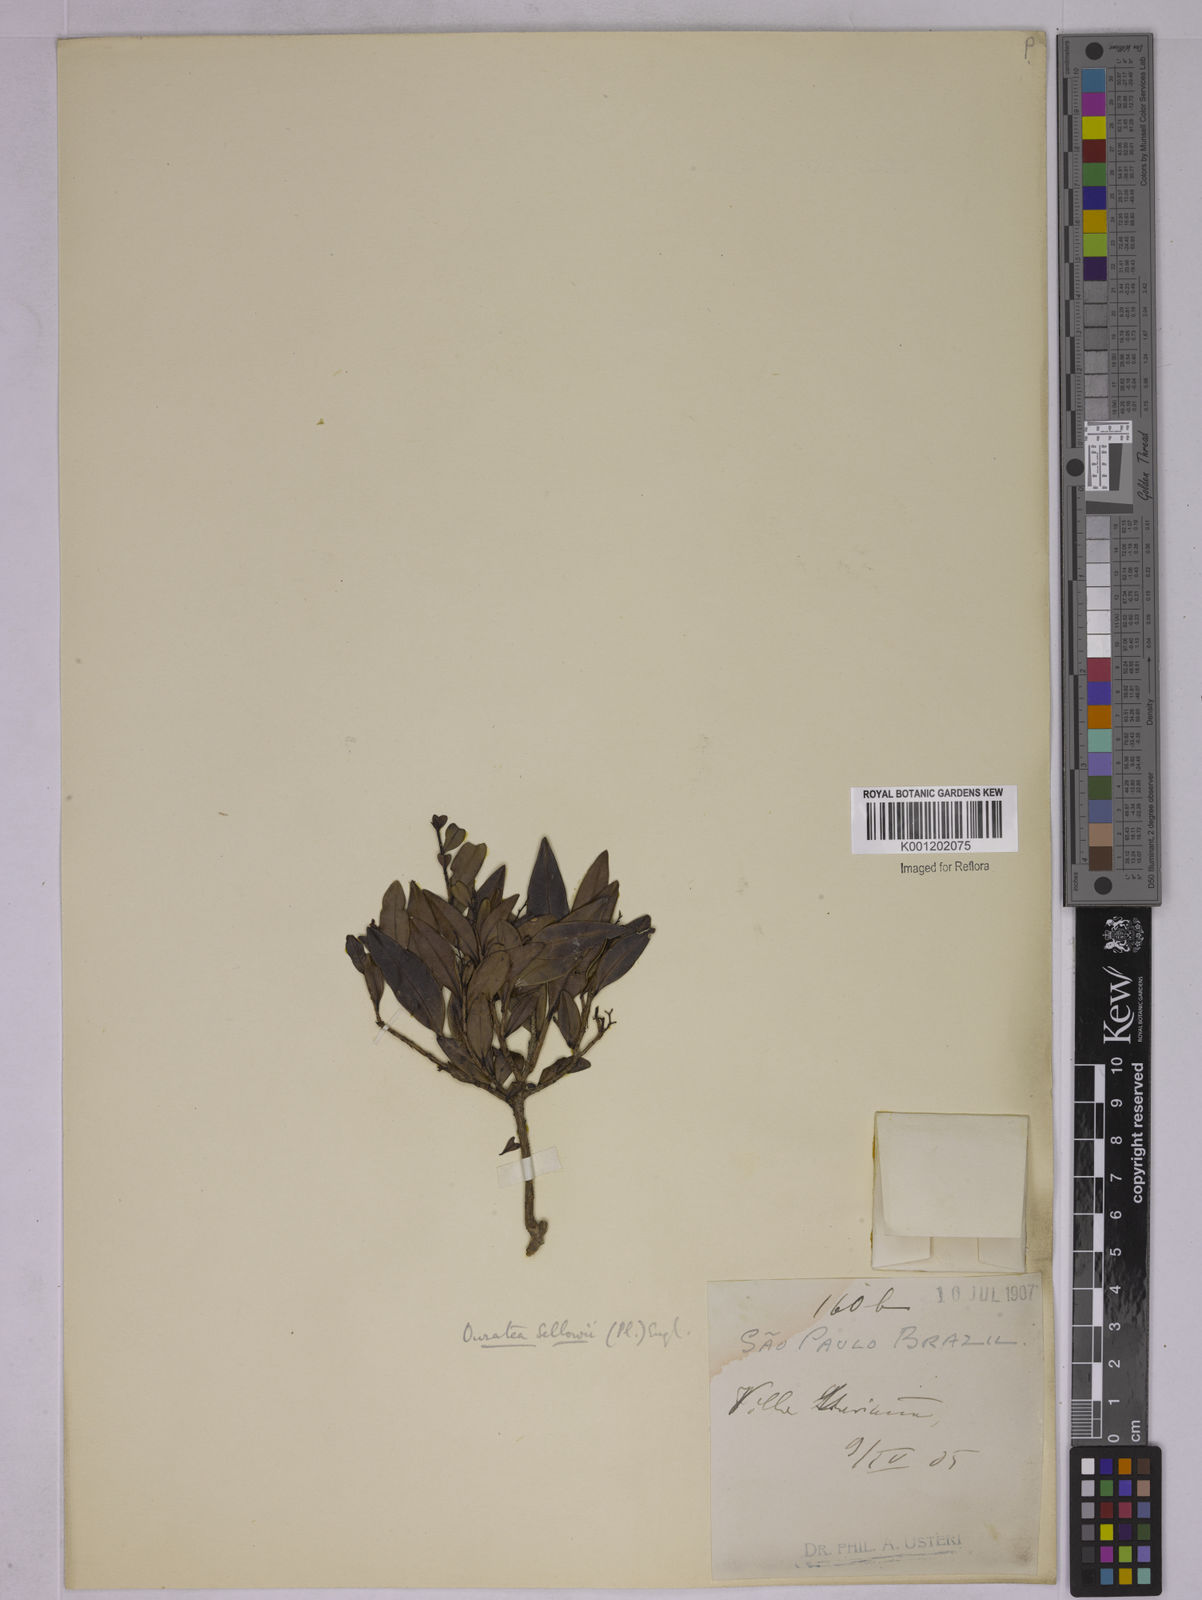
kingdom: Plantae
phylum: Tracheophyta
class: Magnoliopsida
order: Malpighiales
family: Ochnaceae
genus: Ouratea
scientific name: Ouratea sellowii
